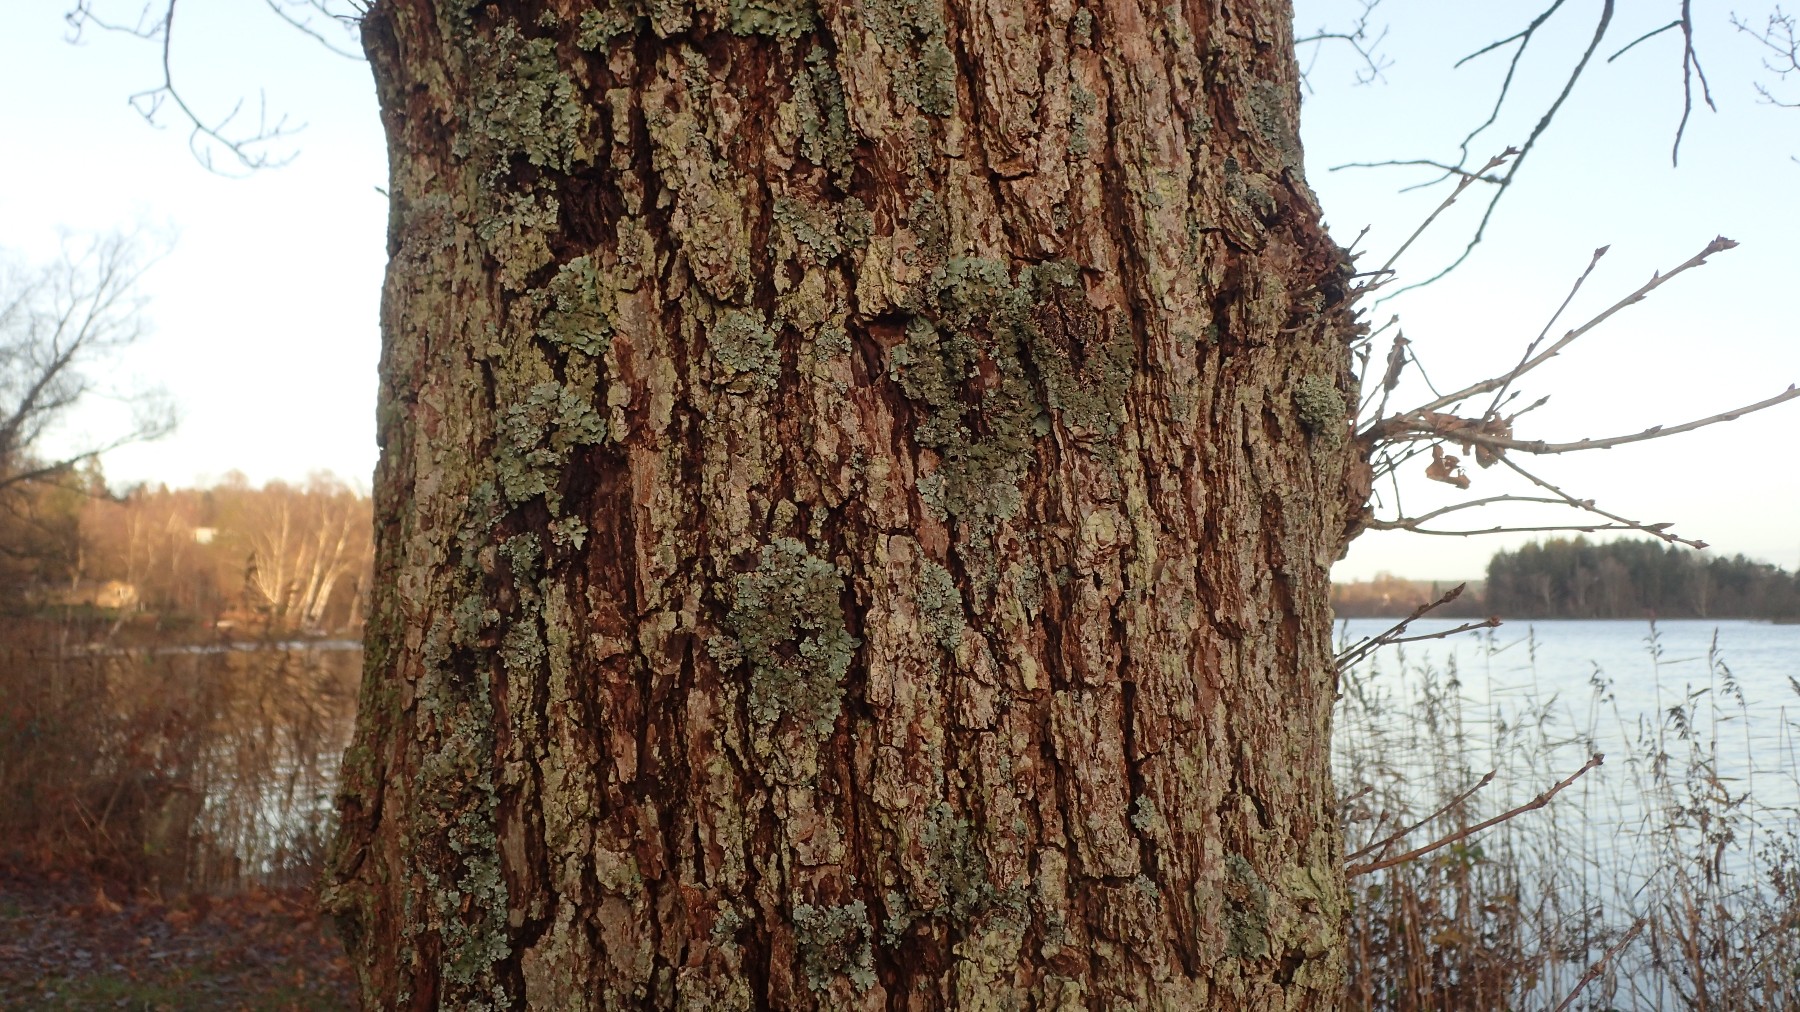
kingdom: Fungi
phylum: Ascomycota
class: Lecanoromycetes
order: Lecanorales
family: Parmeliaceae
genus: Parmelia
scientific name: Parmelia ernstiae
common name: rimstift-skållav
